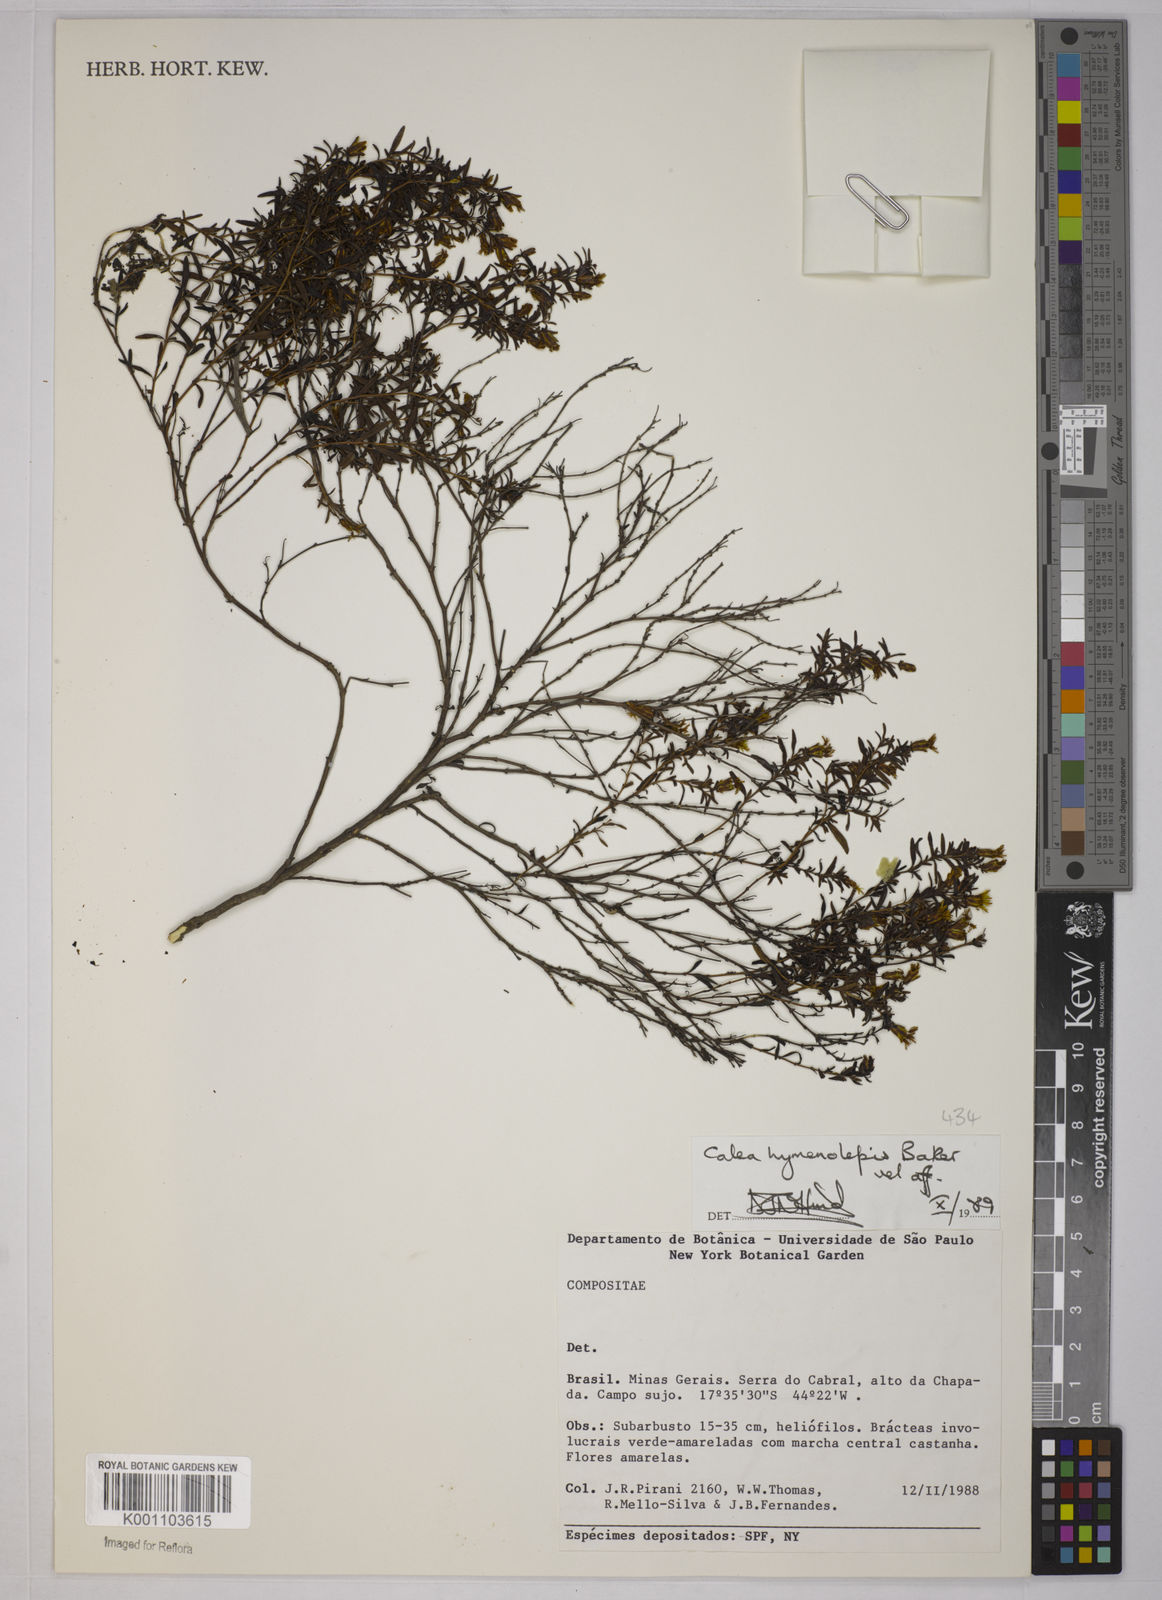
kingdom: Plantae
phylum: Tracheophyta
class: Magnoliopsida
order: Asterales
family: Asteraceae
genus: Calea
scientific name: Calea hymenolepis
